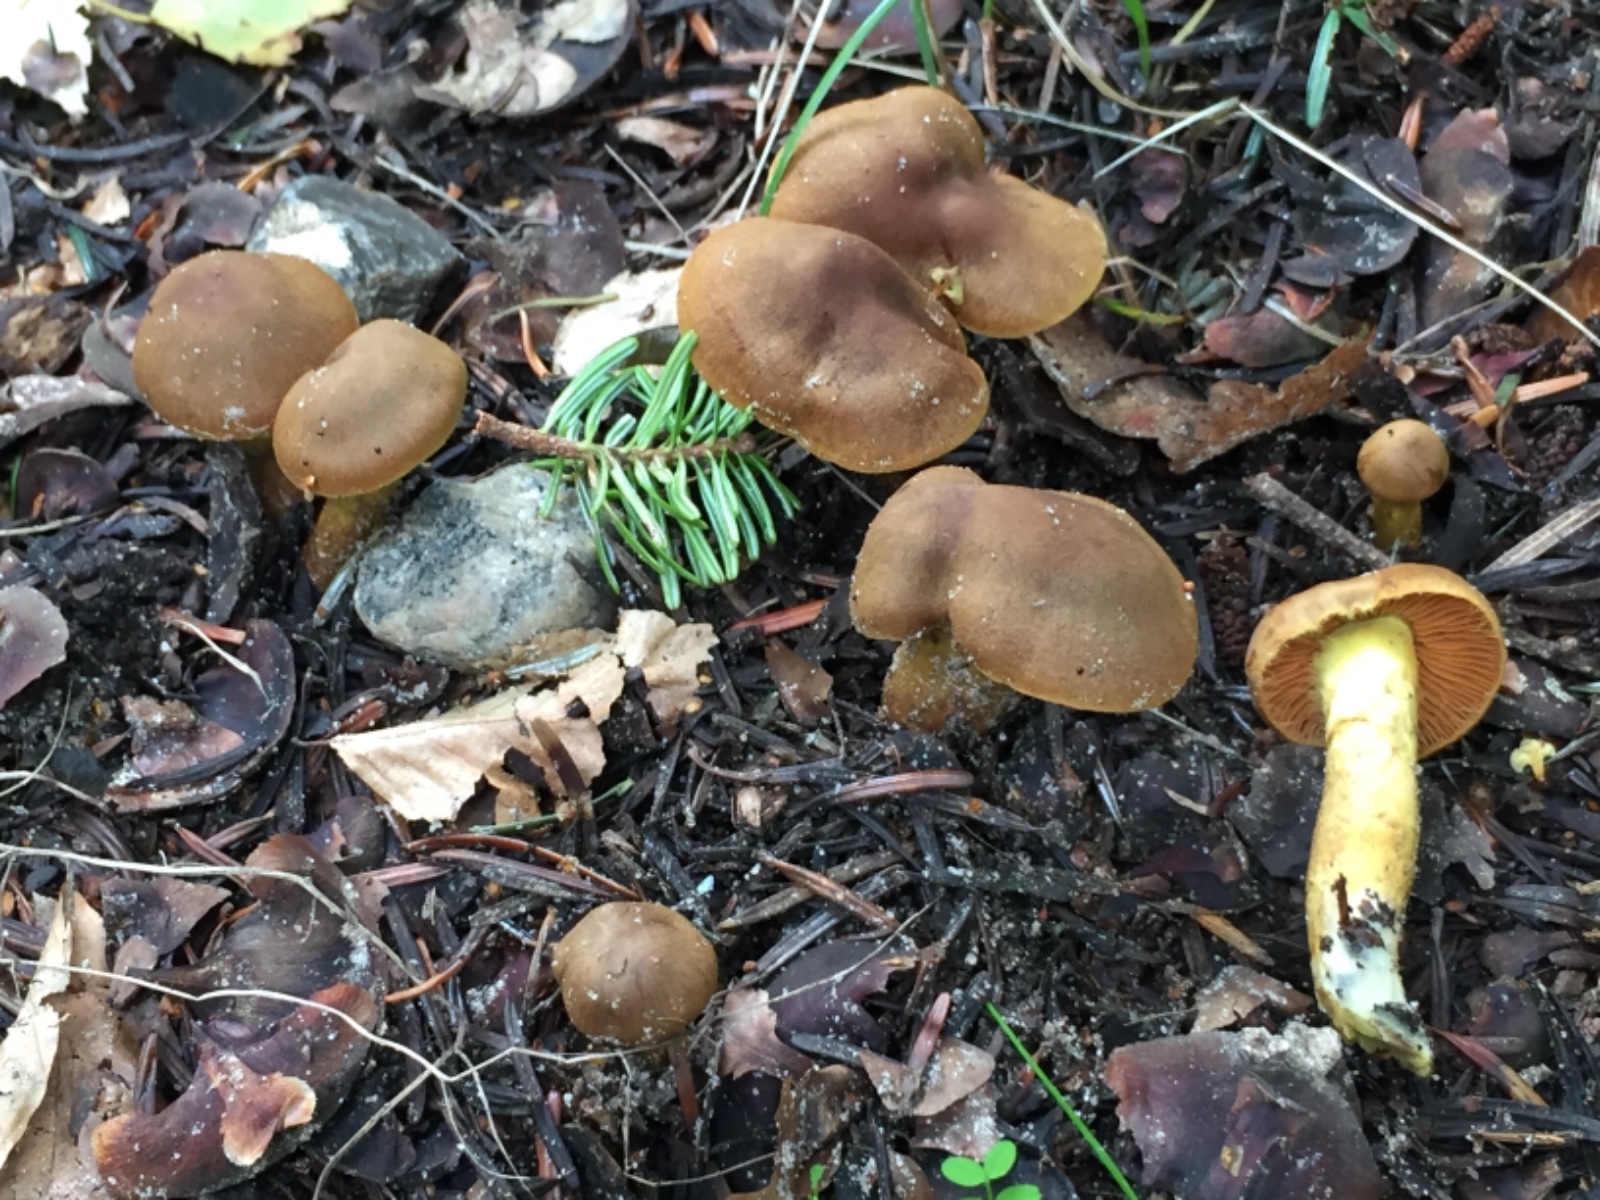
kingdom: Fungi
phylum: Basidiomycota
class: Agaricomycetes
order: Agaricales
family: Cortinariaceae
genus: Cortinarius
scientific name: Cortinarius
